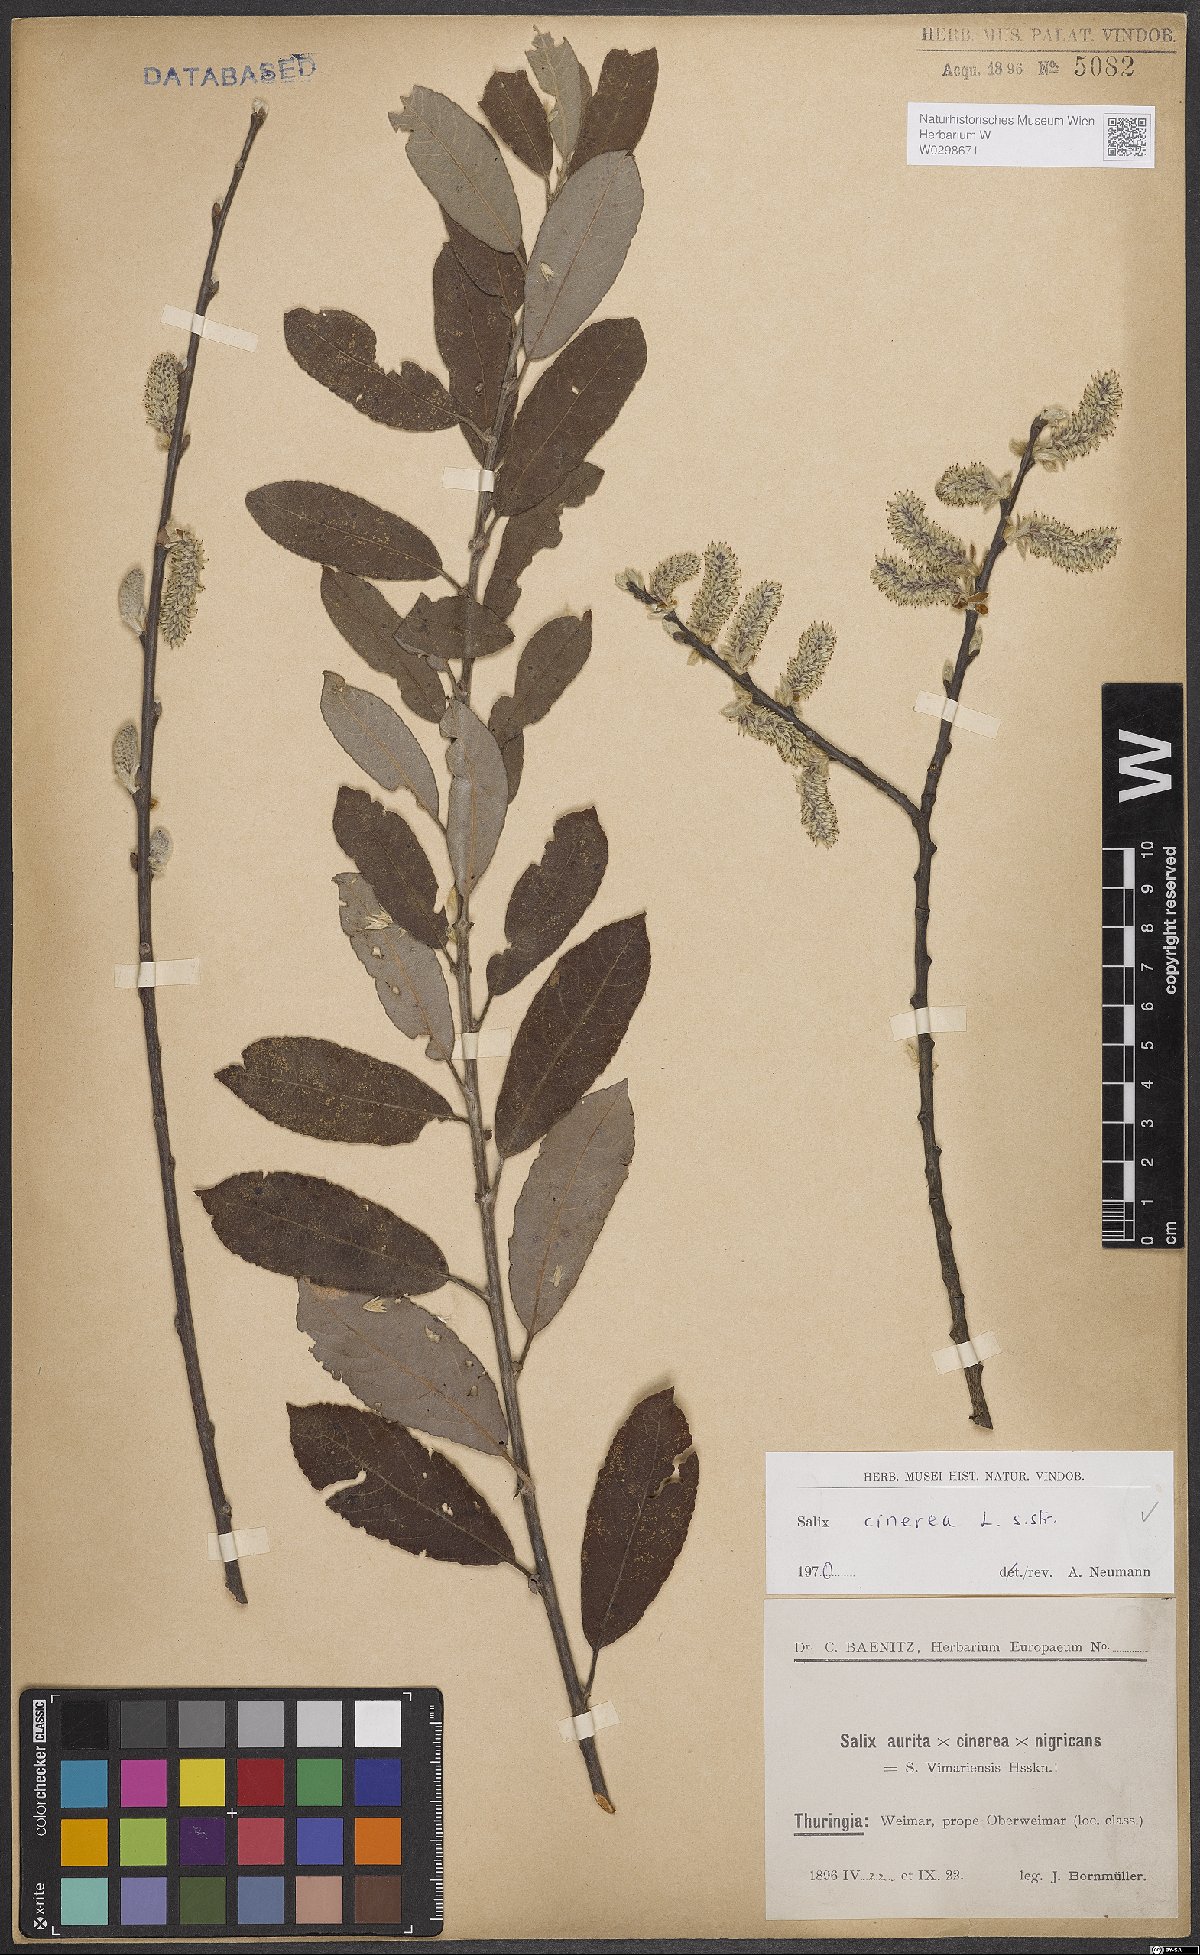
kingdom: Plantae
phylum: Tracheophyta
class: Magnoliopsida
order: Malpighiales
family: Salicaceae
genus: Salix
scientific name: Salix cinerea
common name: Common sallow
